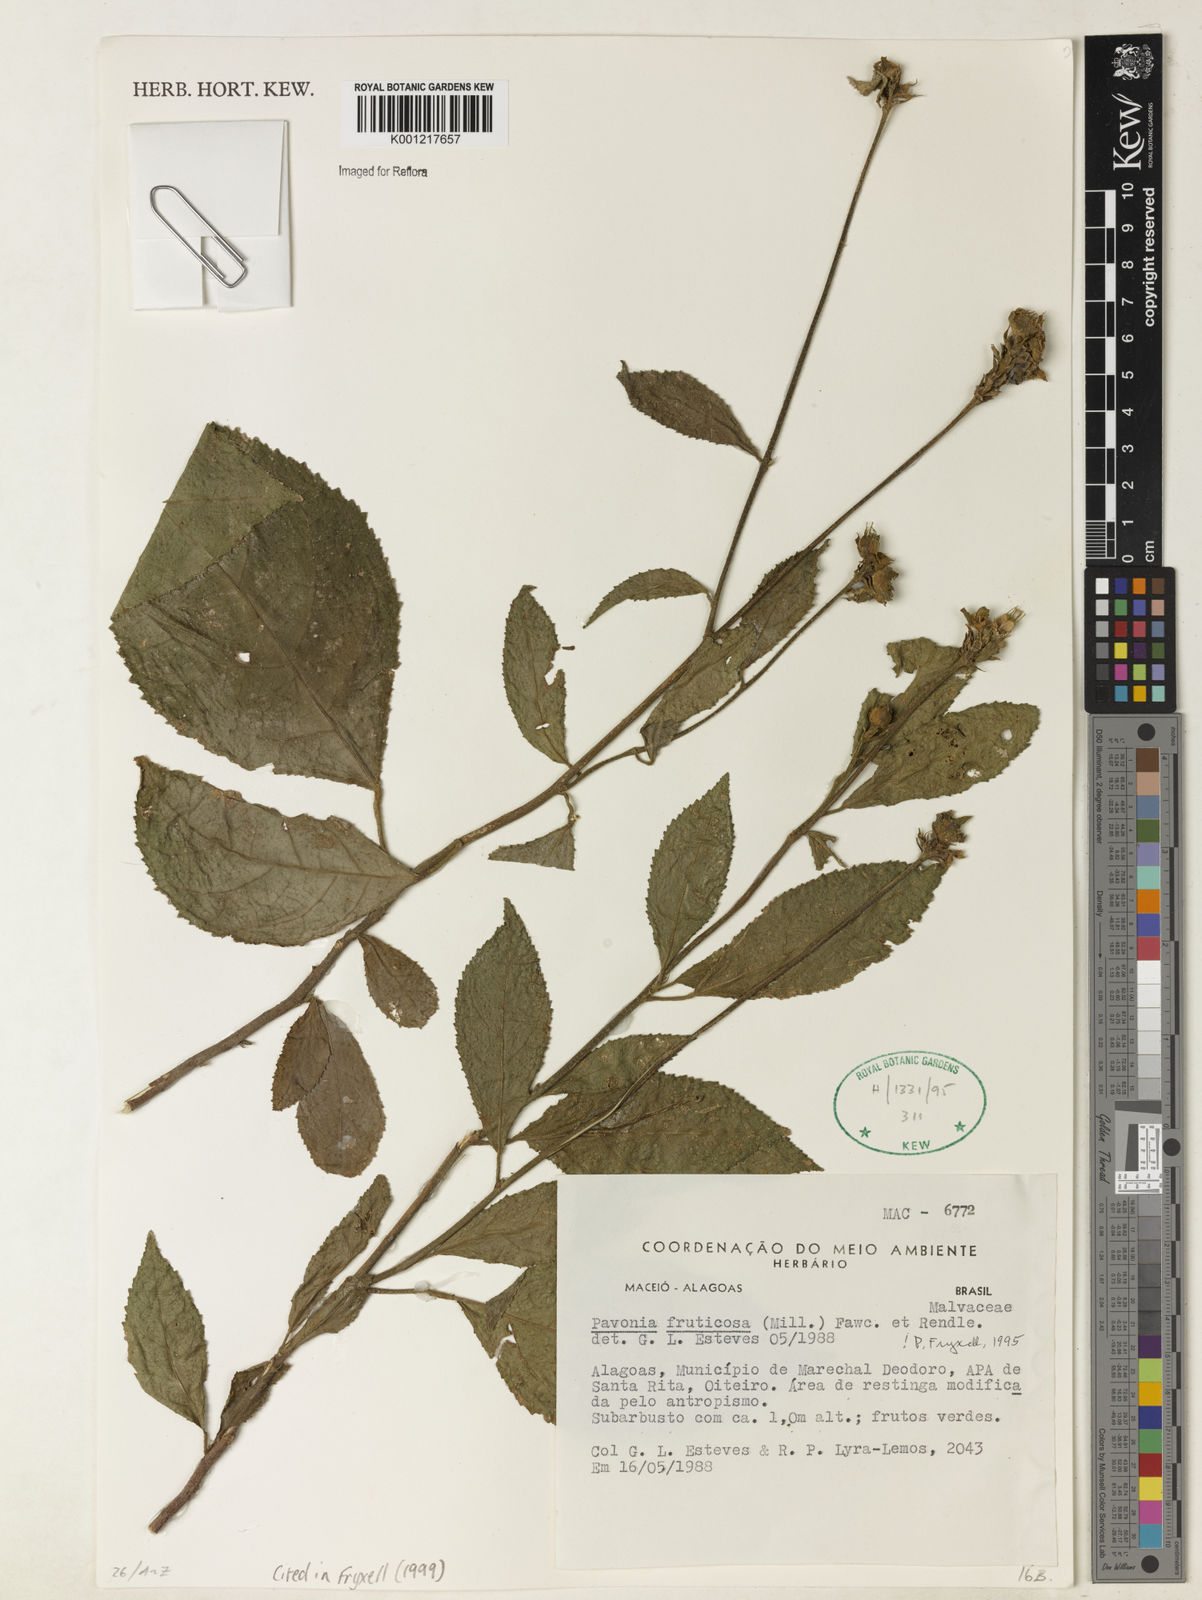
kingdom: Plantae
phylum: Tracheophyta
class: Magnoliopsida
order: Malvales
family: Malvaceae
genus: Pavonia
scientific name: Pavonia fruticosa
